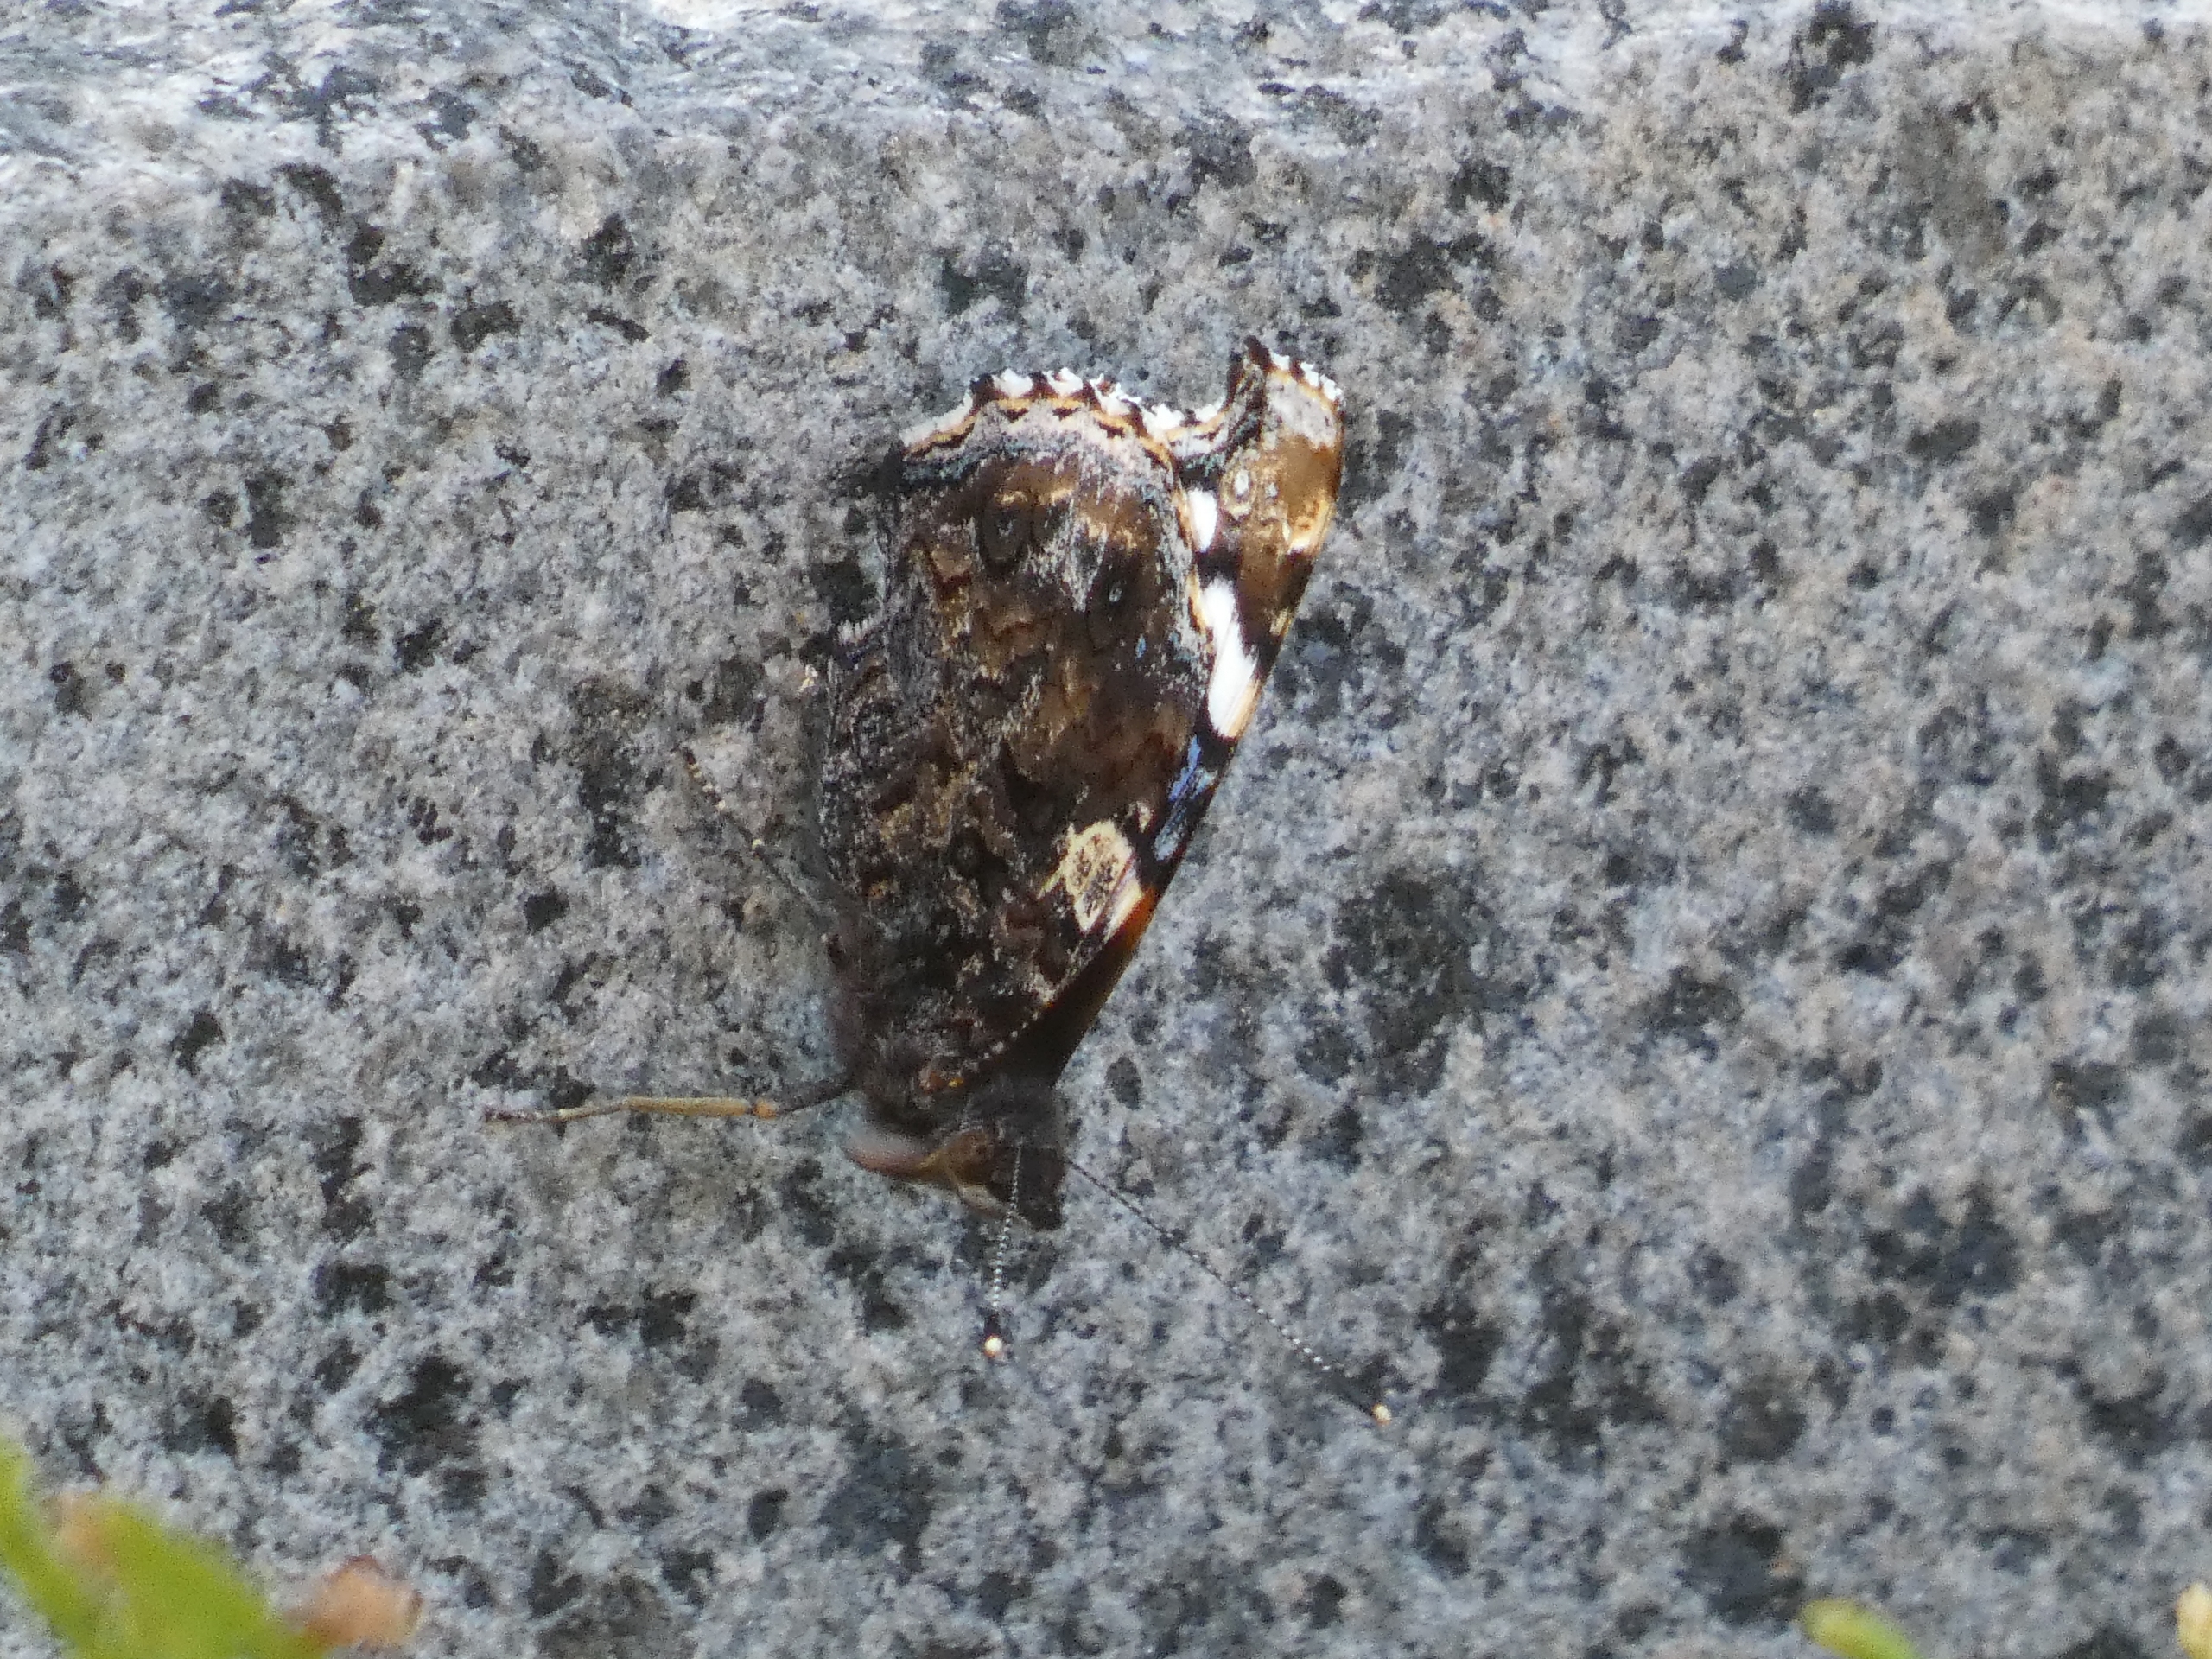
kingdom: Animalia
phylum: Arthropoda
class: Insecta
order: Lepidoptera
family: Nymphalidae
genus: Vanessa
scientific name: Vanessa atalanta
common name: Admiral
